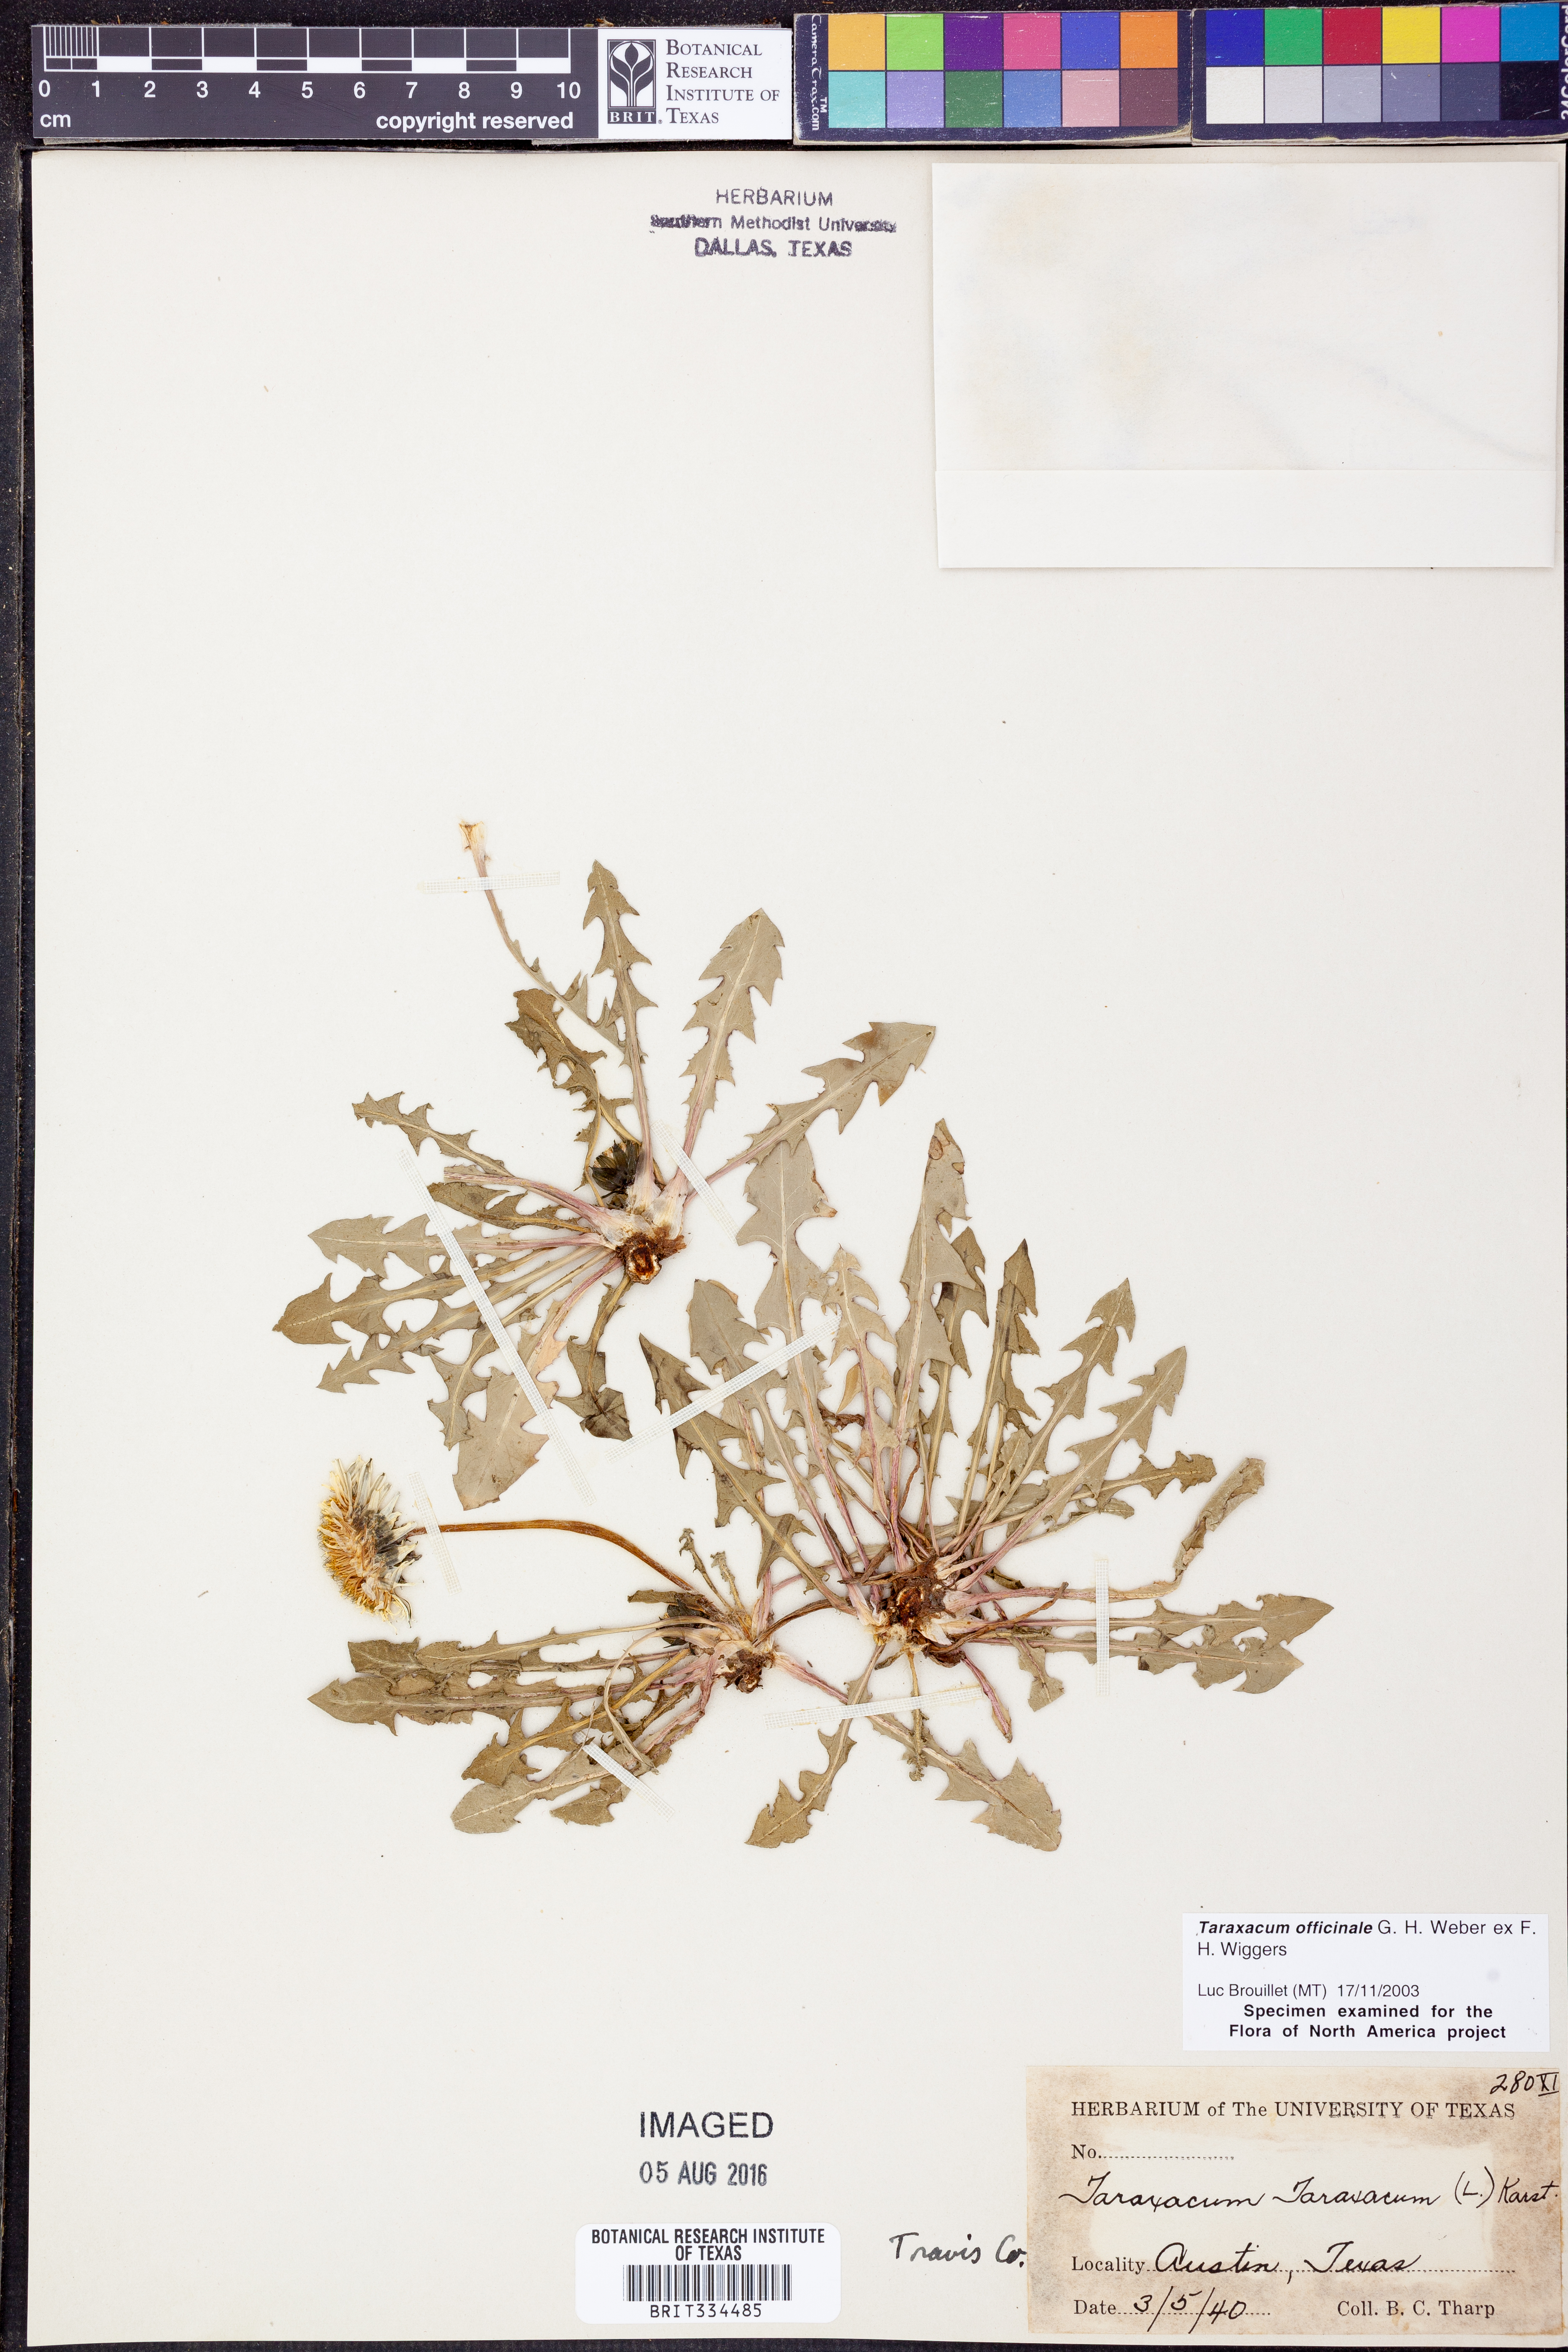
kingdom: Plantae
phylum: Tracheophyta
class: Magnoliopsida
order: Asterales
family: Asteraceae
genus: Taraxacum
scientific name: Taraxacum officinale
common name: Common dandelion
